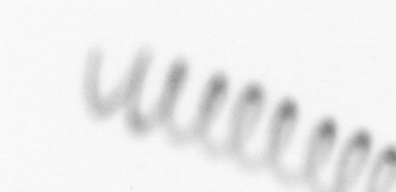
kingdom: Chromista
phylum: Ochrophyta
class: Bacillariophyceae
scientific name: Bacillariophyceae
